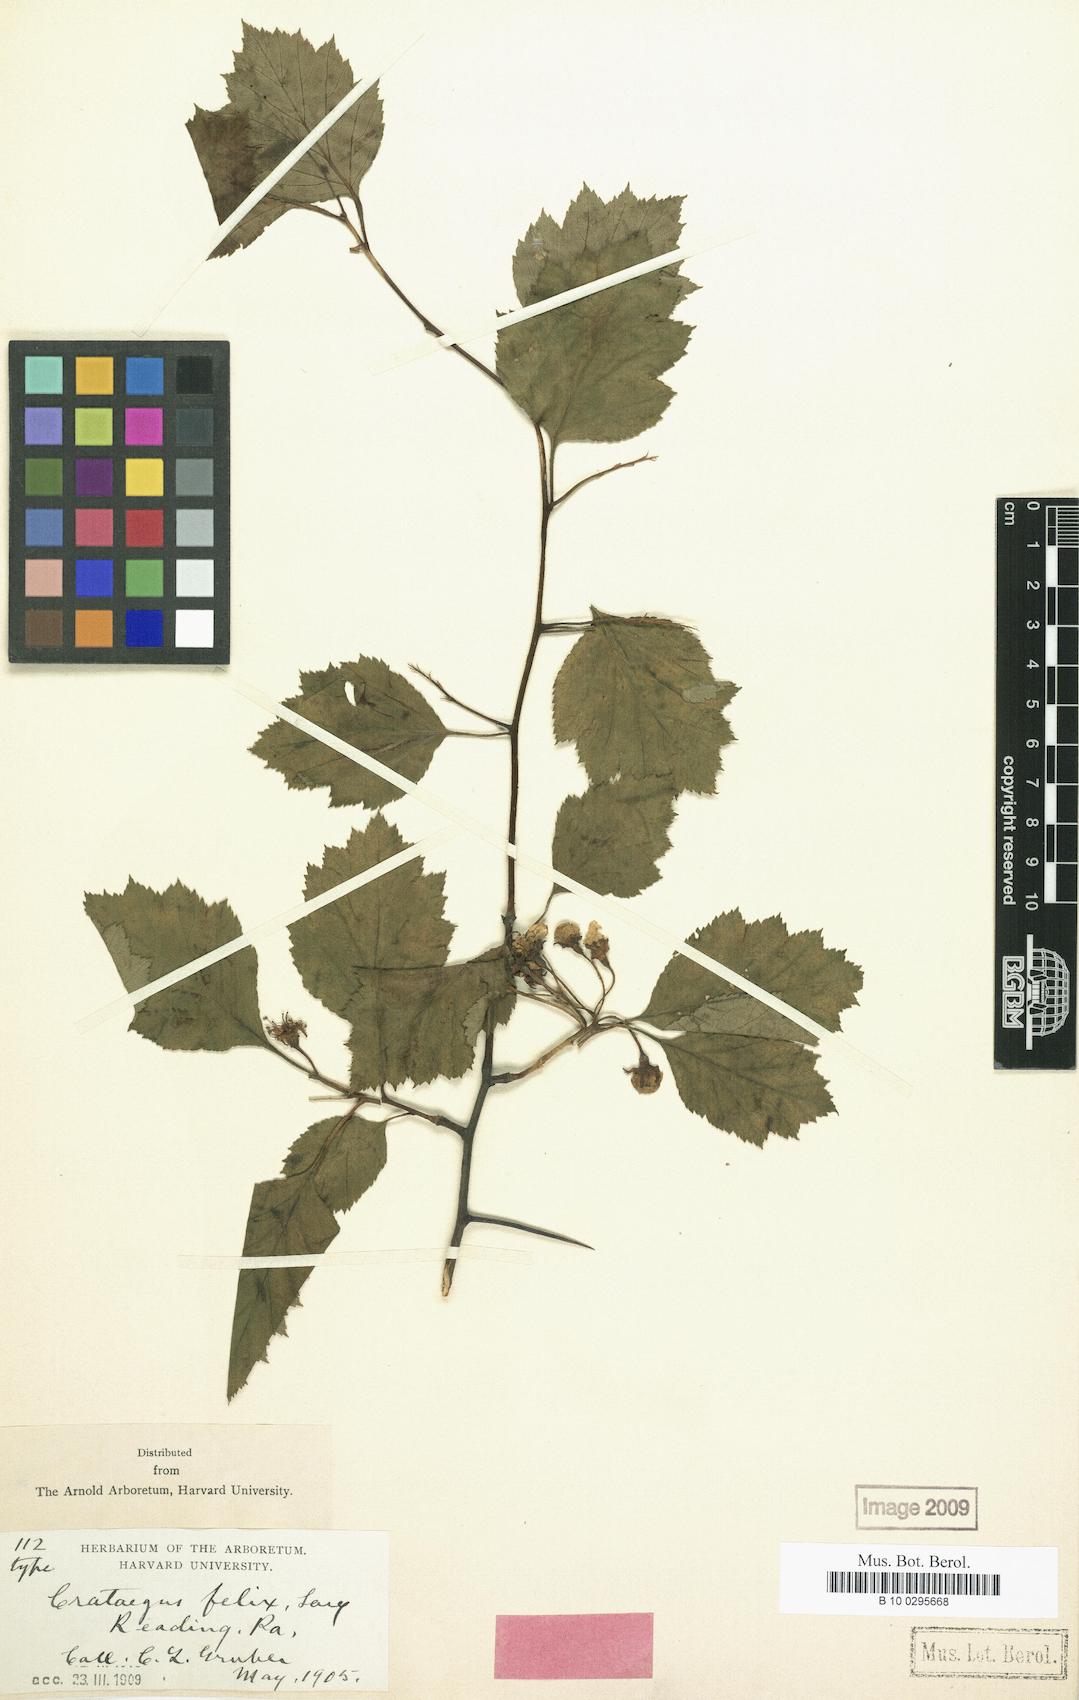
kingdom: Plantae
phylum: Tracheophyta
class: Magnoliopsida
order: Rosales
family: Rosaceae
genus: Crataegus
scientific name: Crataegus felix
